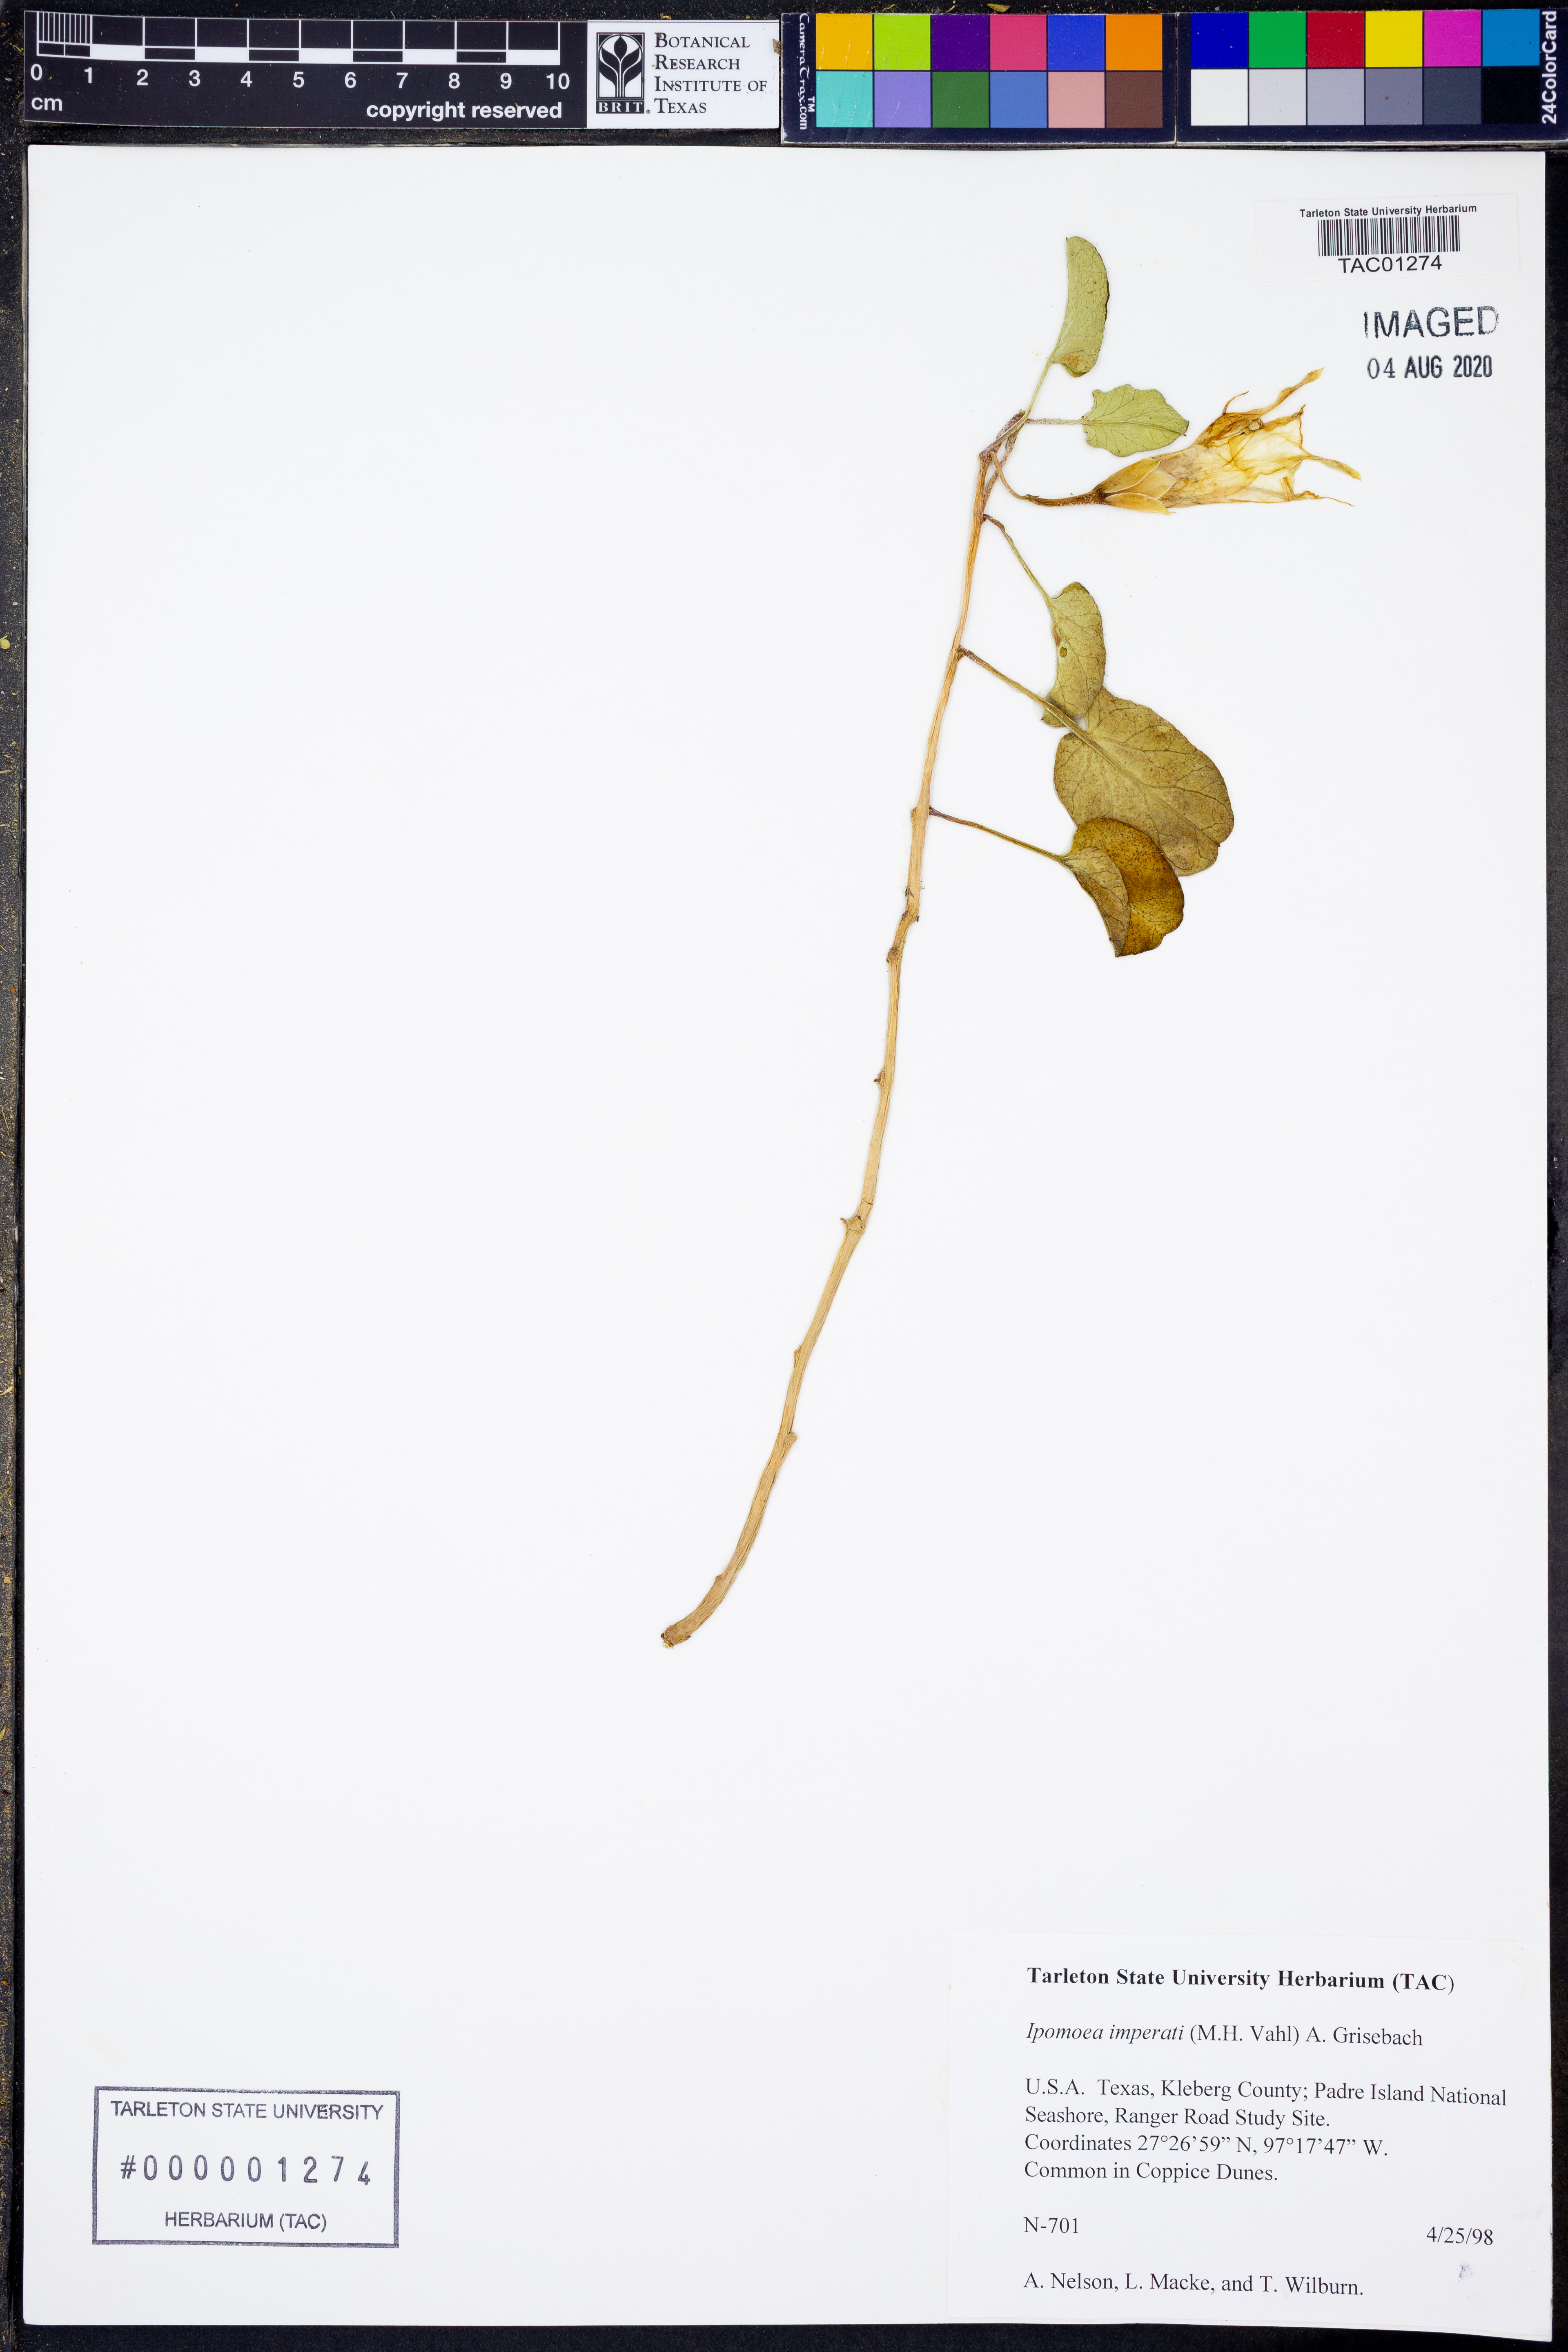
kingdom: Plantae
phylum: Tracheophyta
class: Magnoliopsida
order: Solanales
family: Convolvulaceae
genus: Ipomoea
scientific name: Ipomoea imperati
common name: Fiddle-leaf morning-glory
